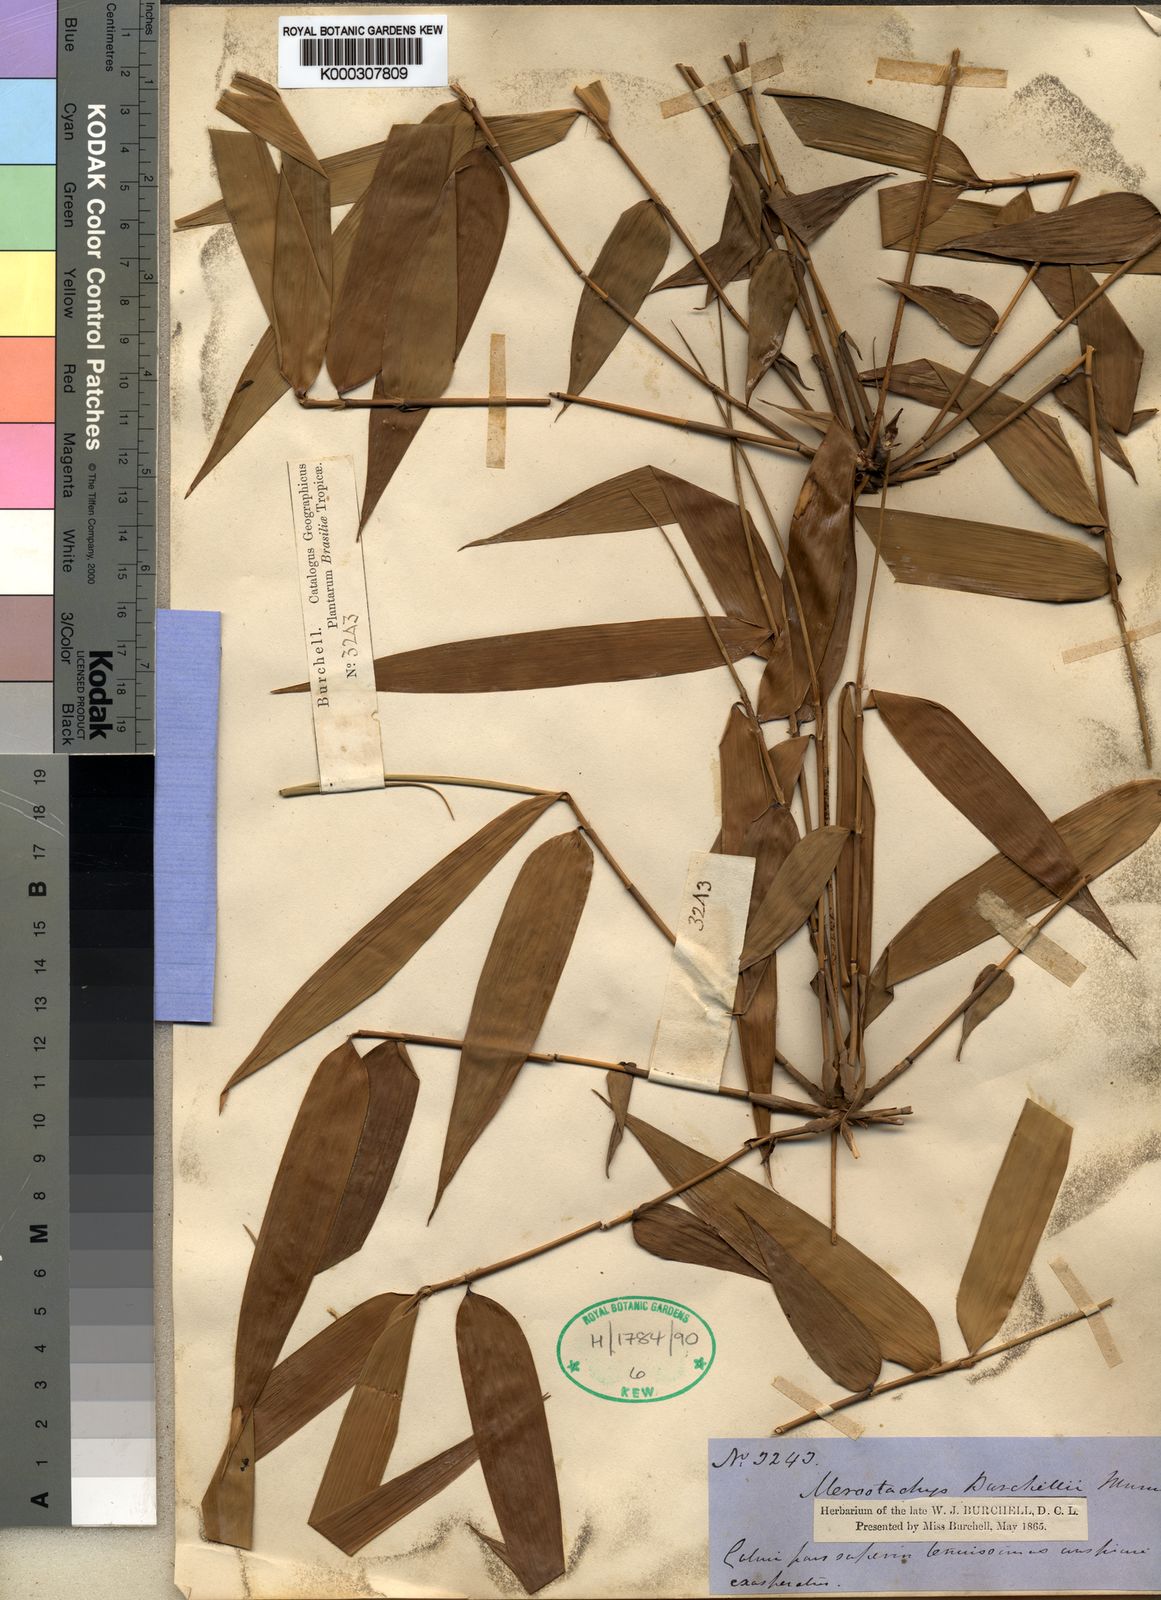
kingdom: Plantae
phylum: Tracheophyta
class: Liliopsida
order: Poales
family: Poaceae
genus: Merostachys
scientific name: Merostachys claussenii
